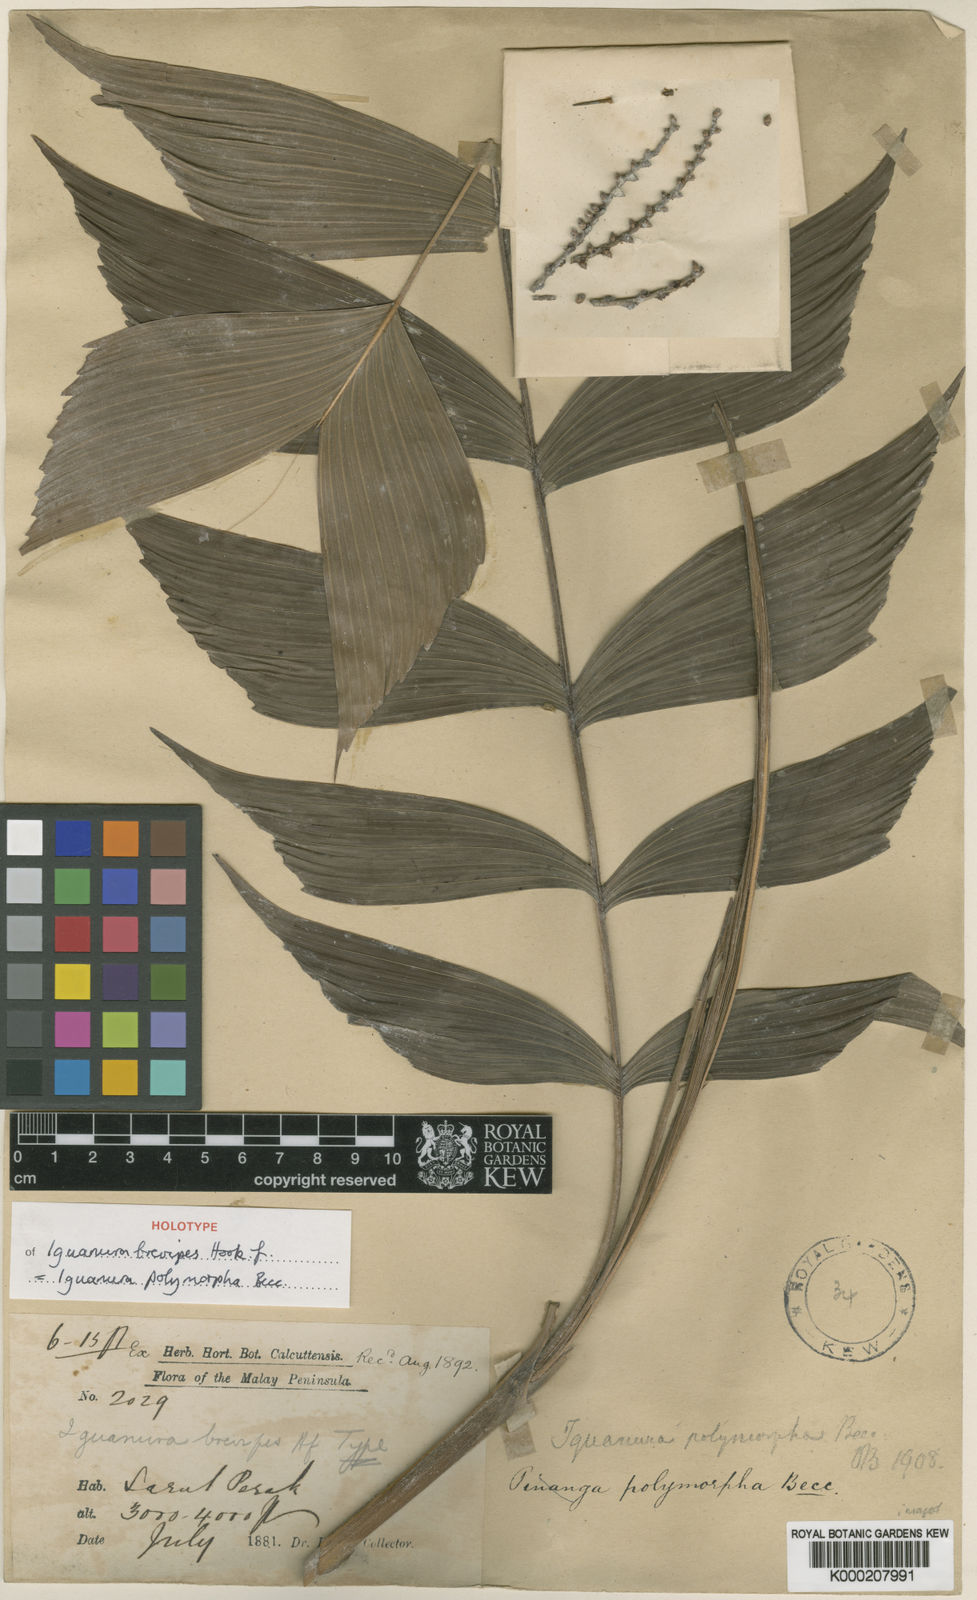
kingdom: Plantae
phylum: Tracheophyta
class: Liliopsida
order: Arecales
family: Arecaceae
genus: Iguanura
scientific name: Iguanura polymorpha
